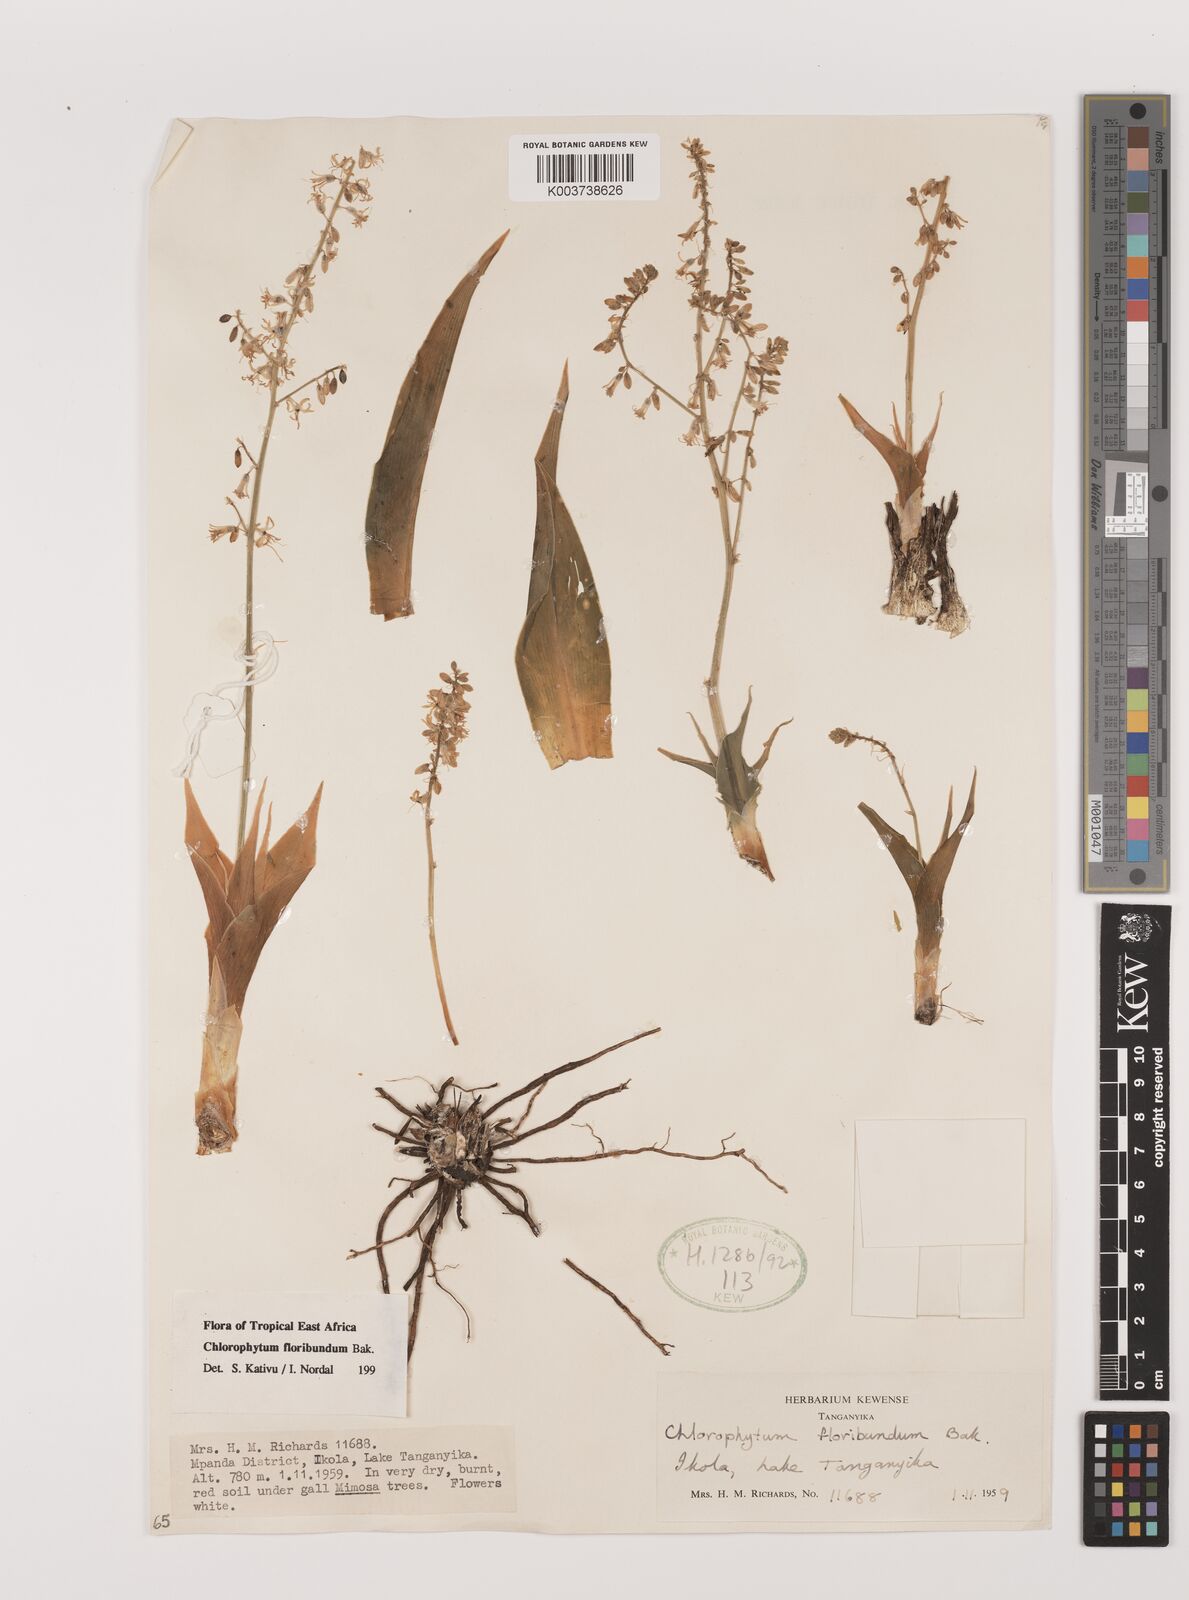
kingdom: Plantae
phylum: Tracheophyta
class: Liliopsida
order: Asparagales
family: Asparagaceae
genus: Chlorophytum
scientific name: Chlorophytum gallabatense
